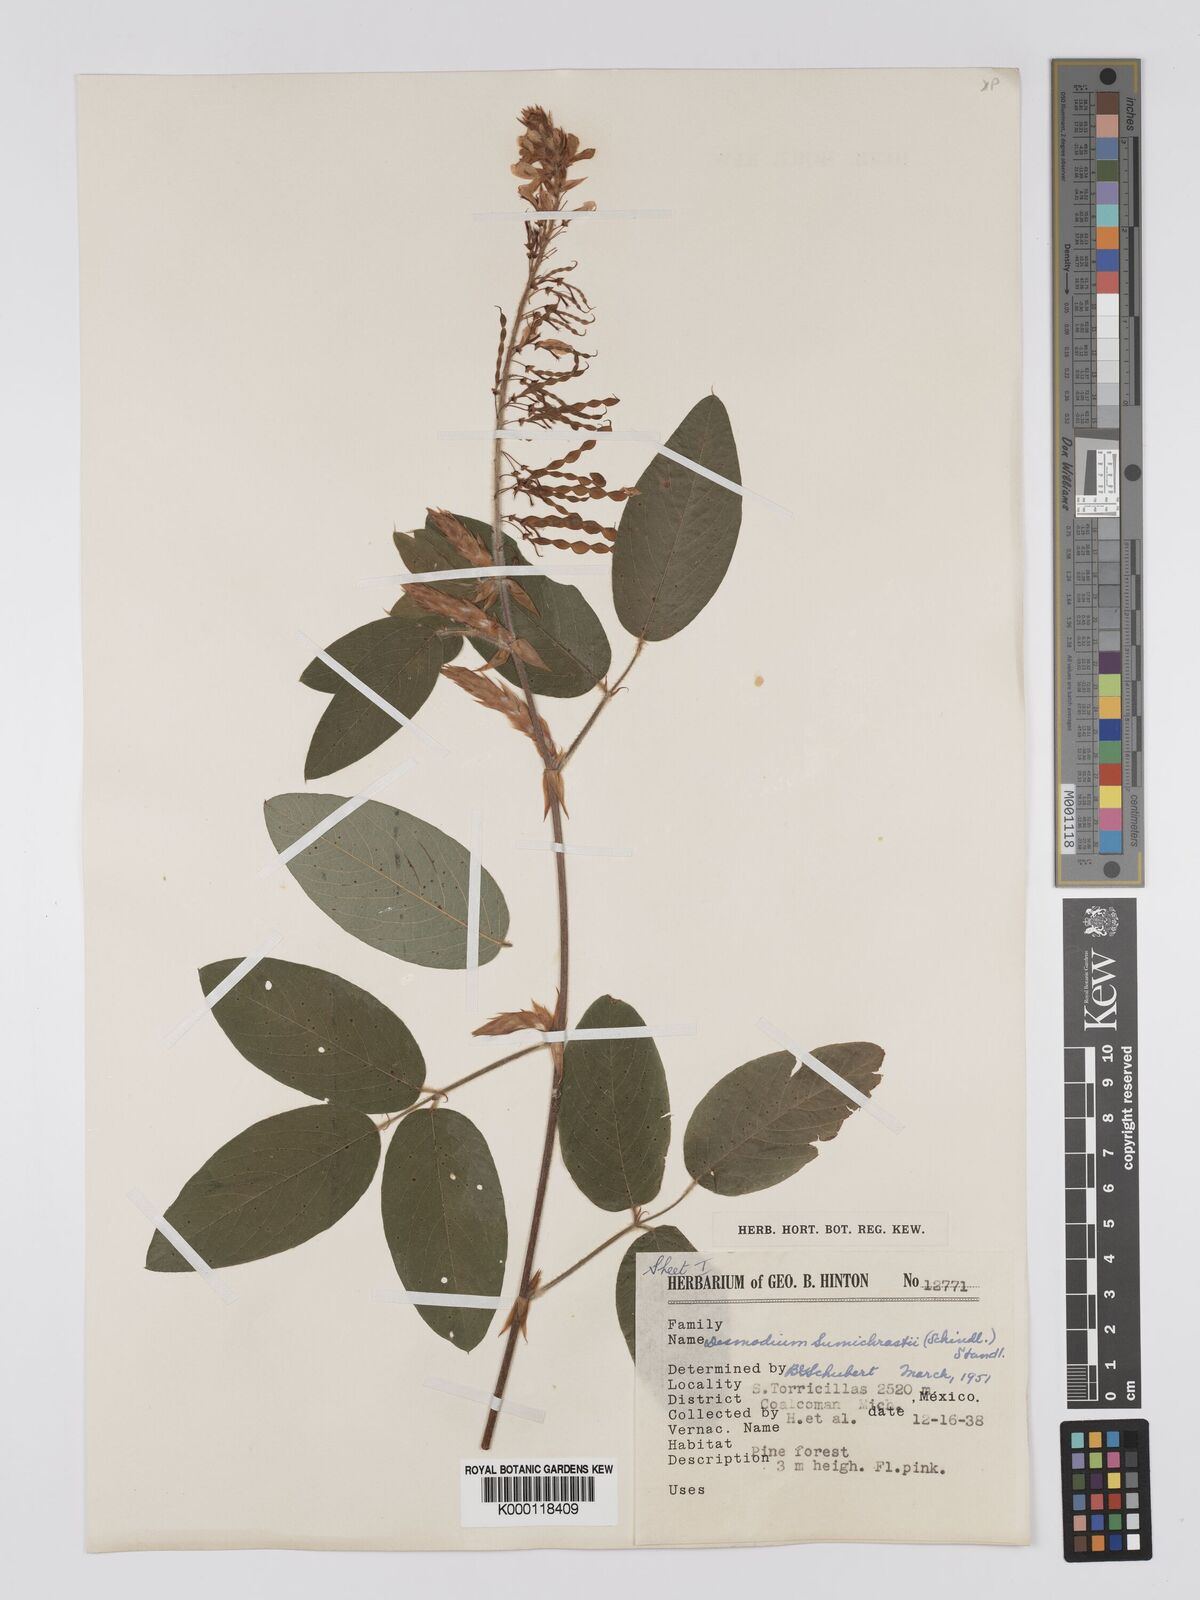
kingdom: Plantae
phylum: Tracheophyta
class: Magnoliopsida
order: Fabales
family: Fabaceae
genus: Desmodium
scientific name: Desmodium sumichrastii
